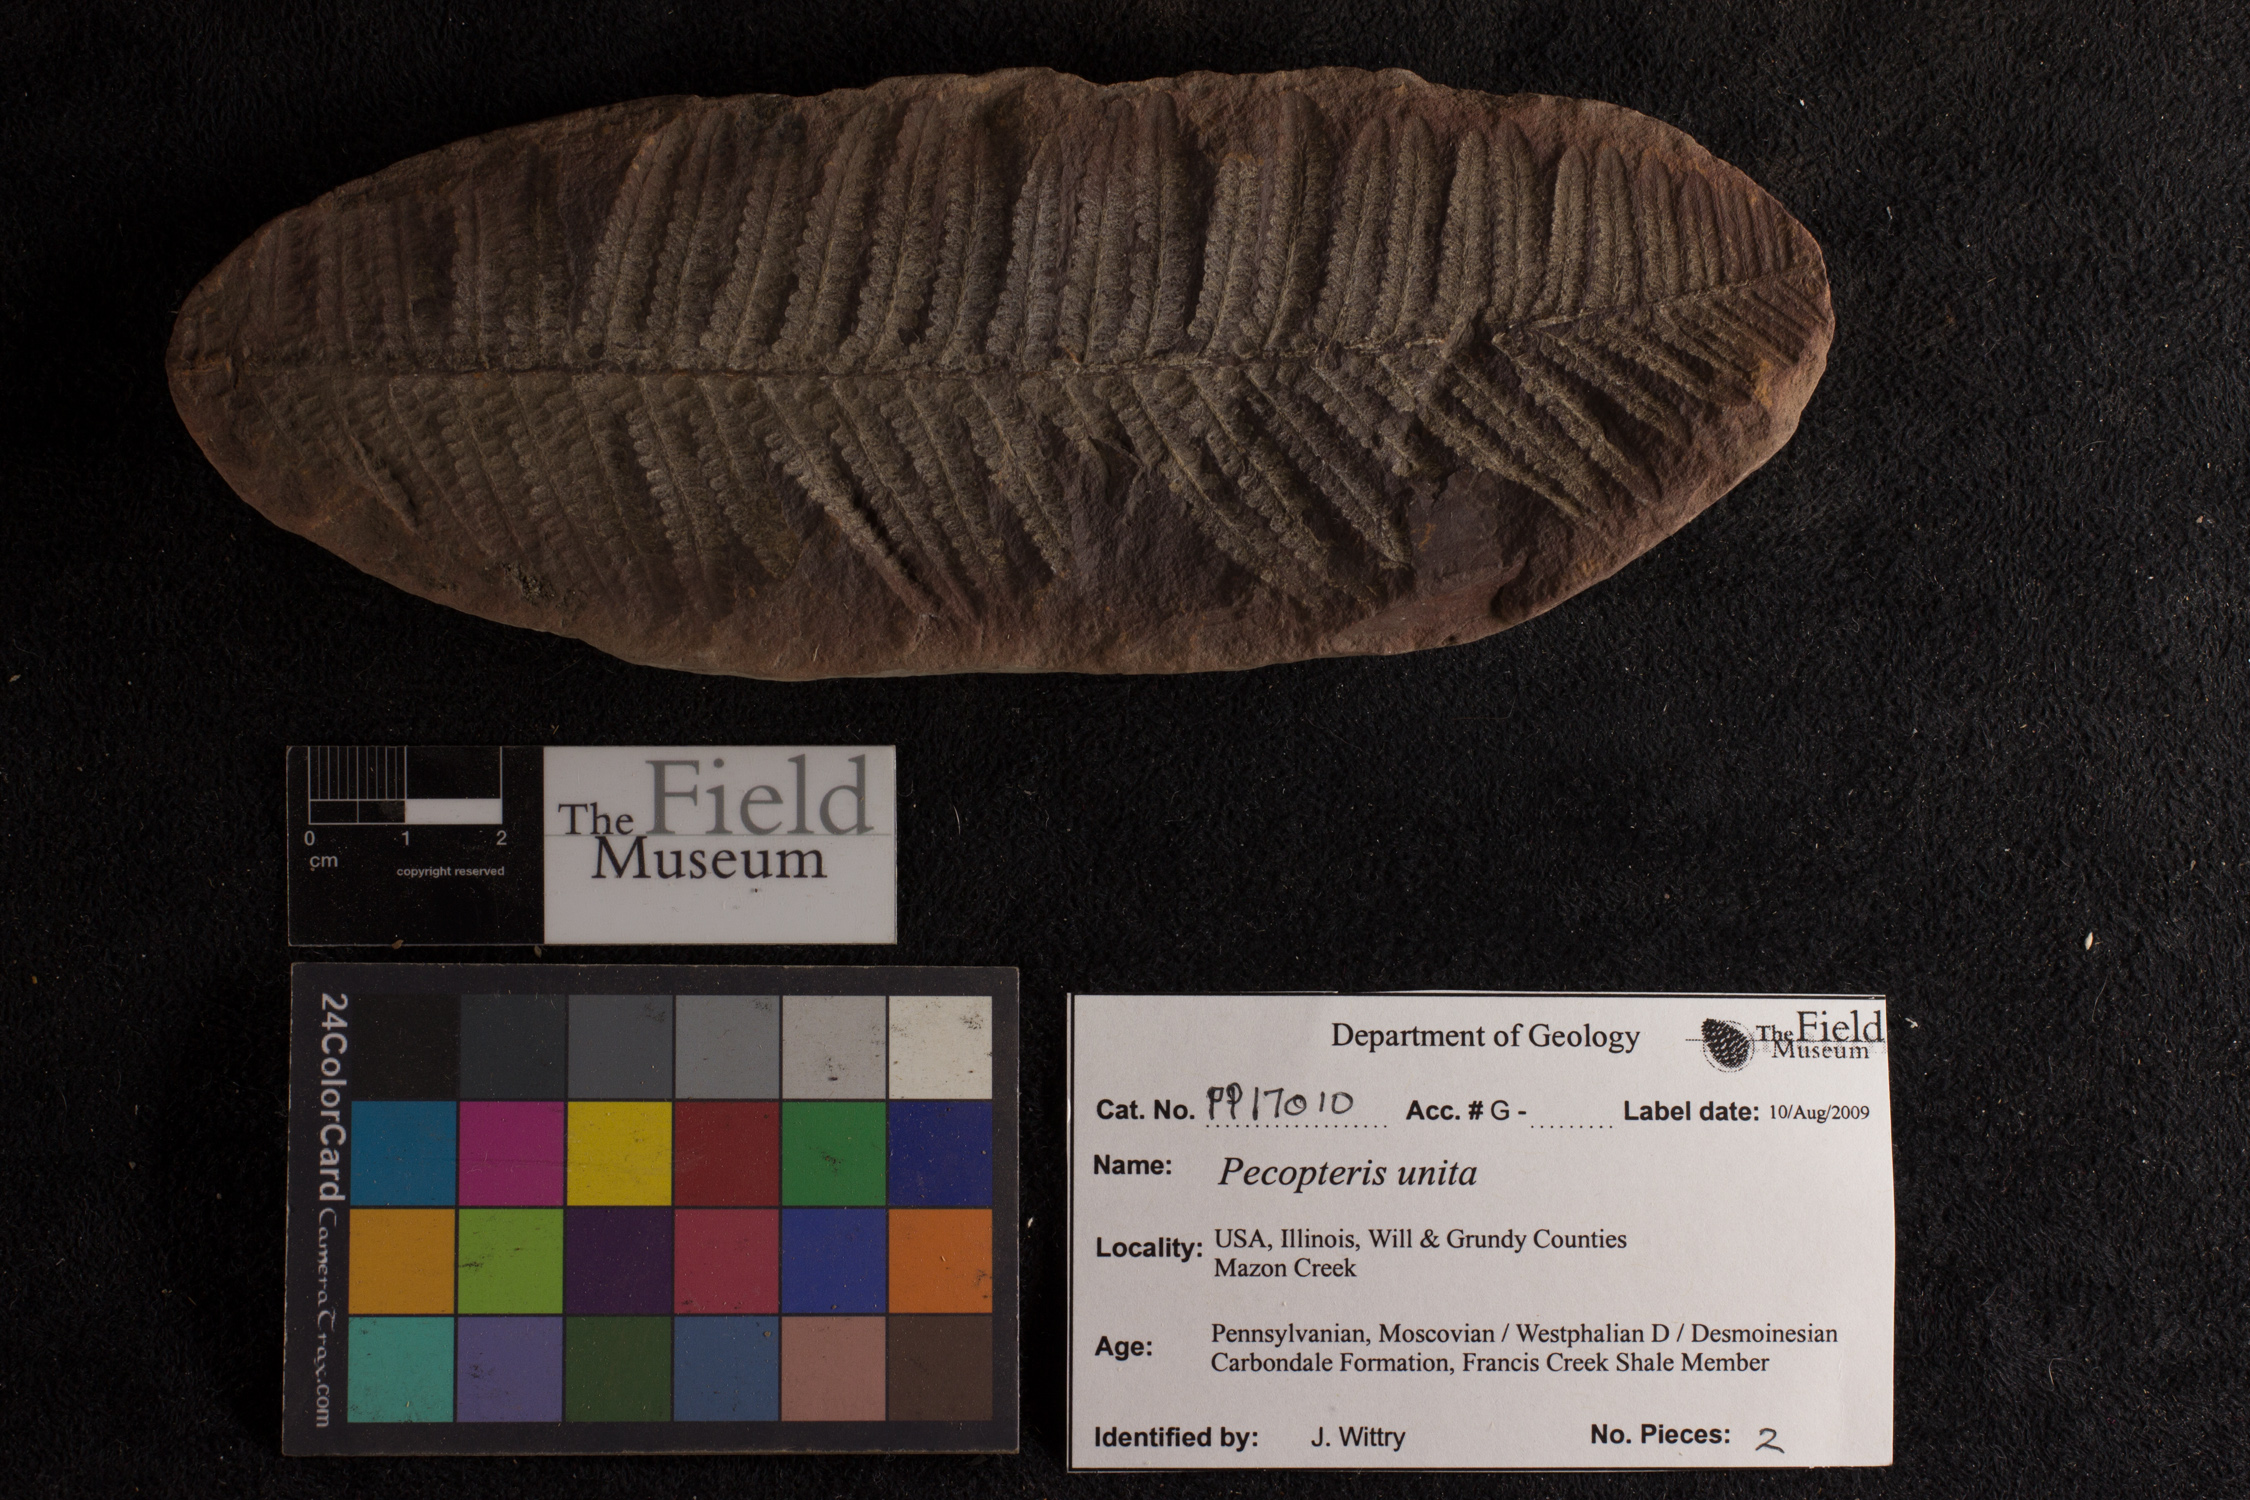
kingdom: Plantae
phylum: Tracheophyta
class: Polypodiopsida
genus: Diplazites
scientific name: Diplazites
